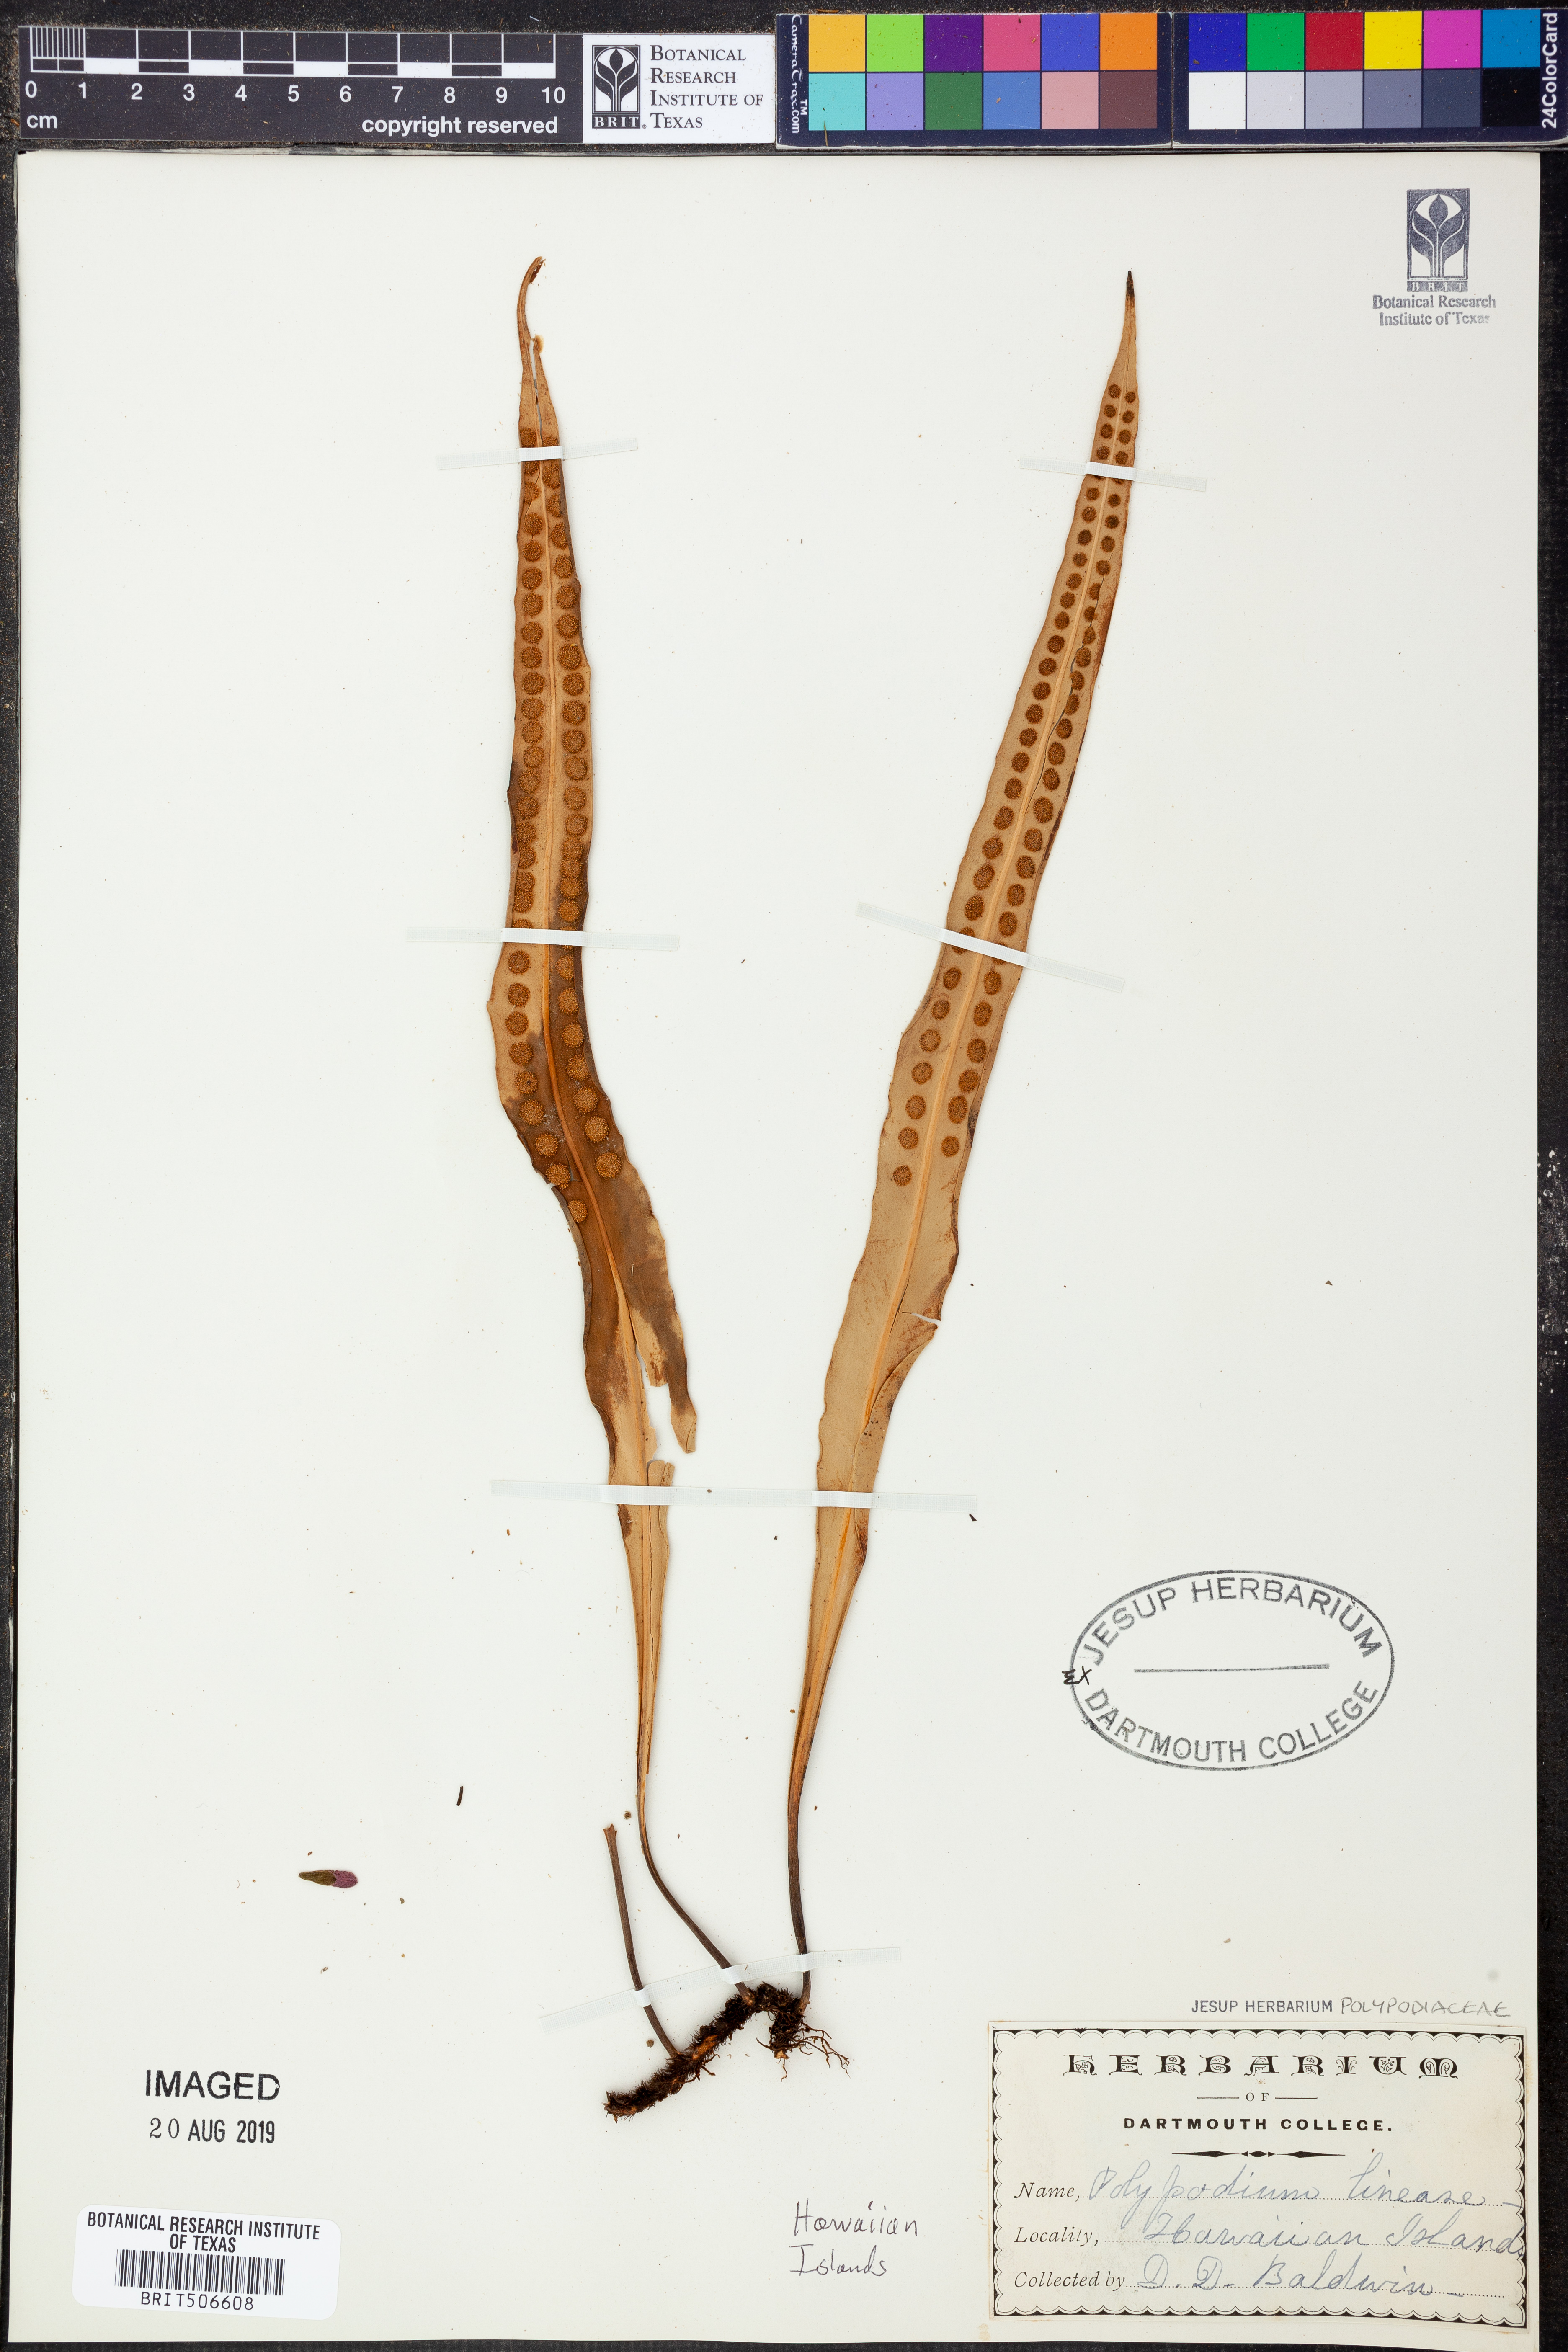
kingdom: Plantae
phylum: Tracheophyta
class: Polypodiopsida
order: Polypodiales
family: Polypodiaceae
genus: Lepisorus
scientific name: Lepisorus thunbergianus
